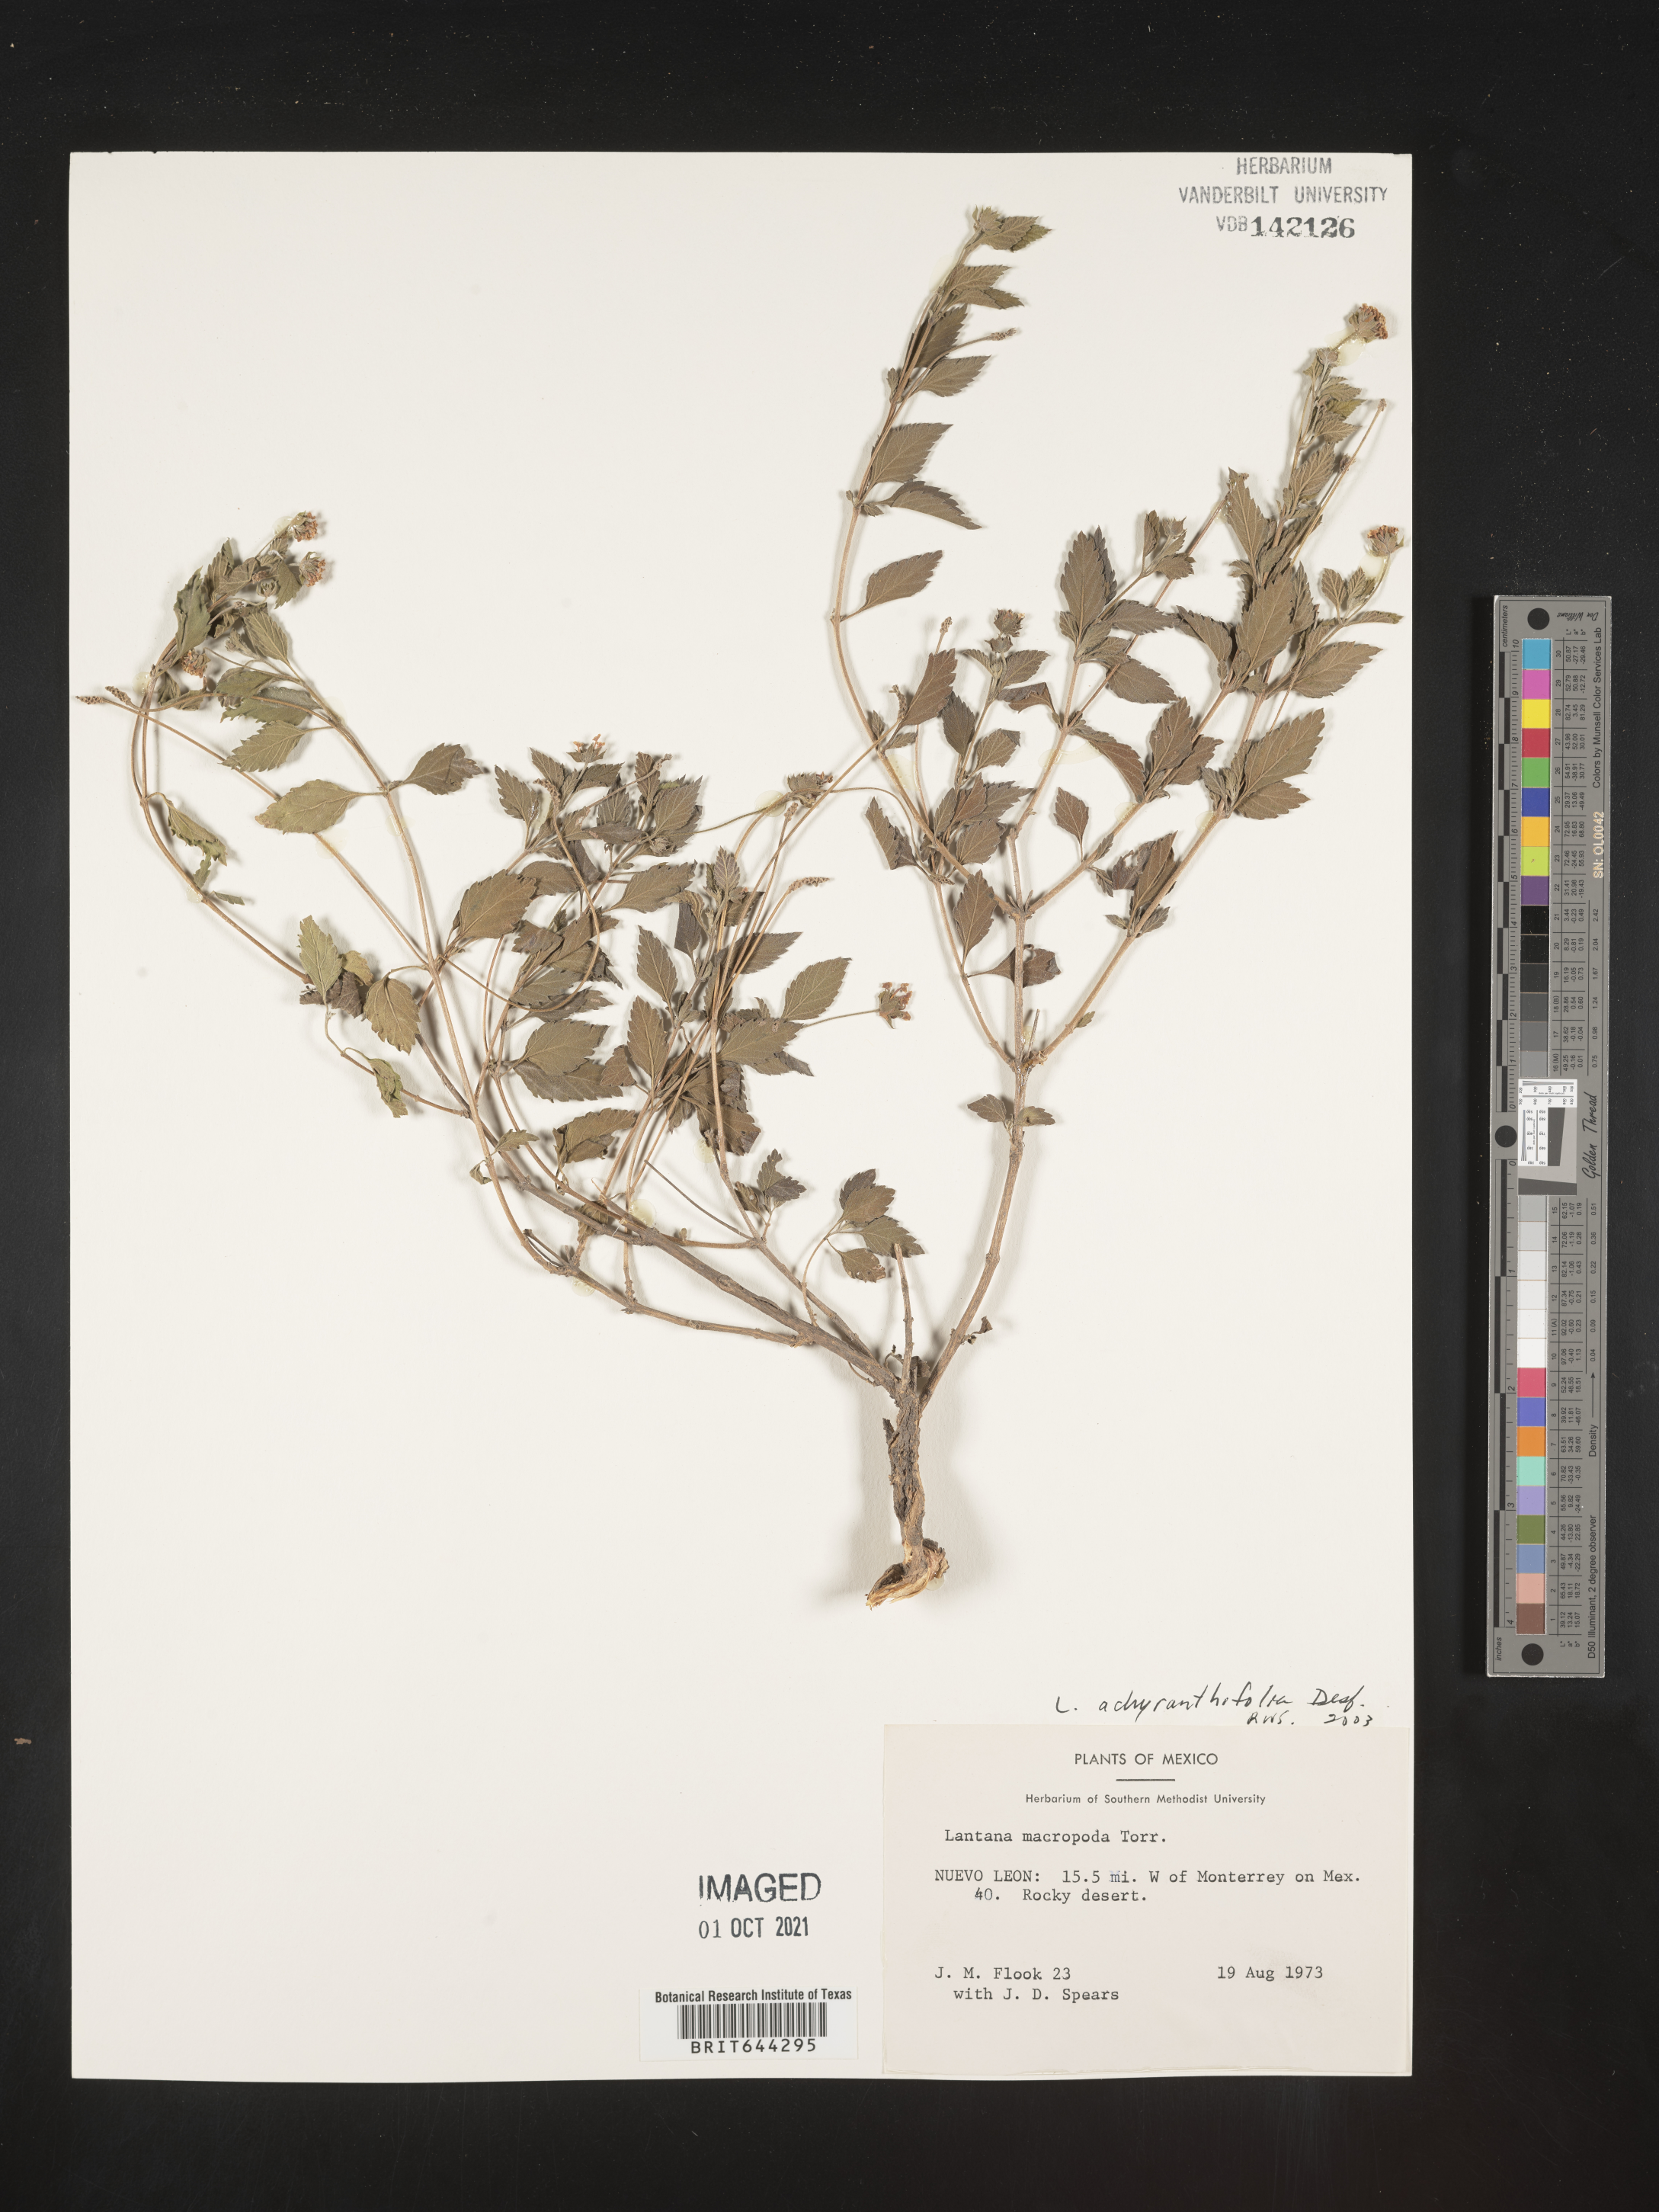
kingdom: Plantae
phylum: Tracheophyta
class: Magnoliopsida
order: Lamiales
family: Verbenaceae
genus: Lantana
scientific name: Lantana
